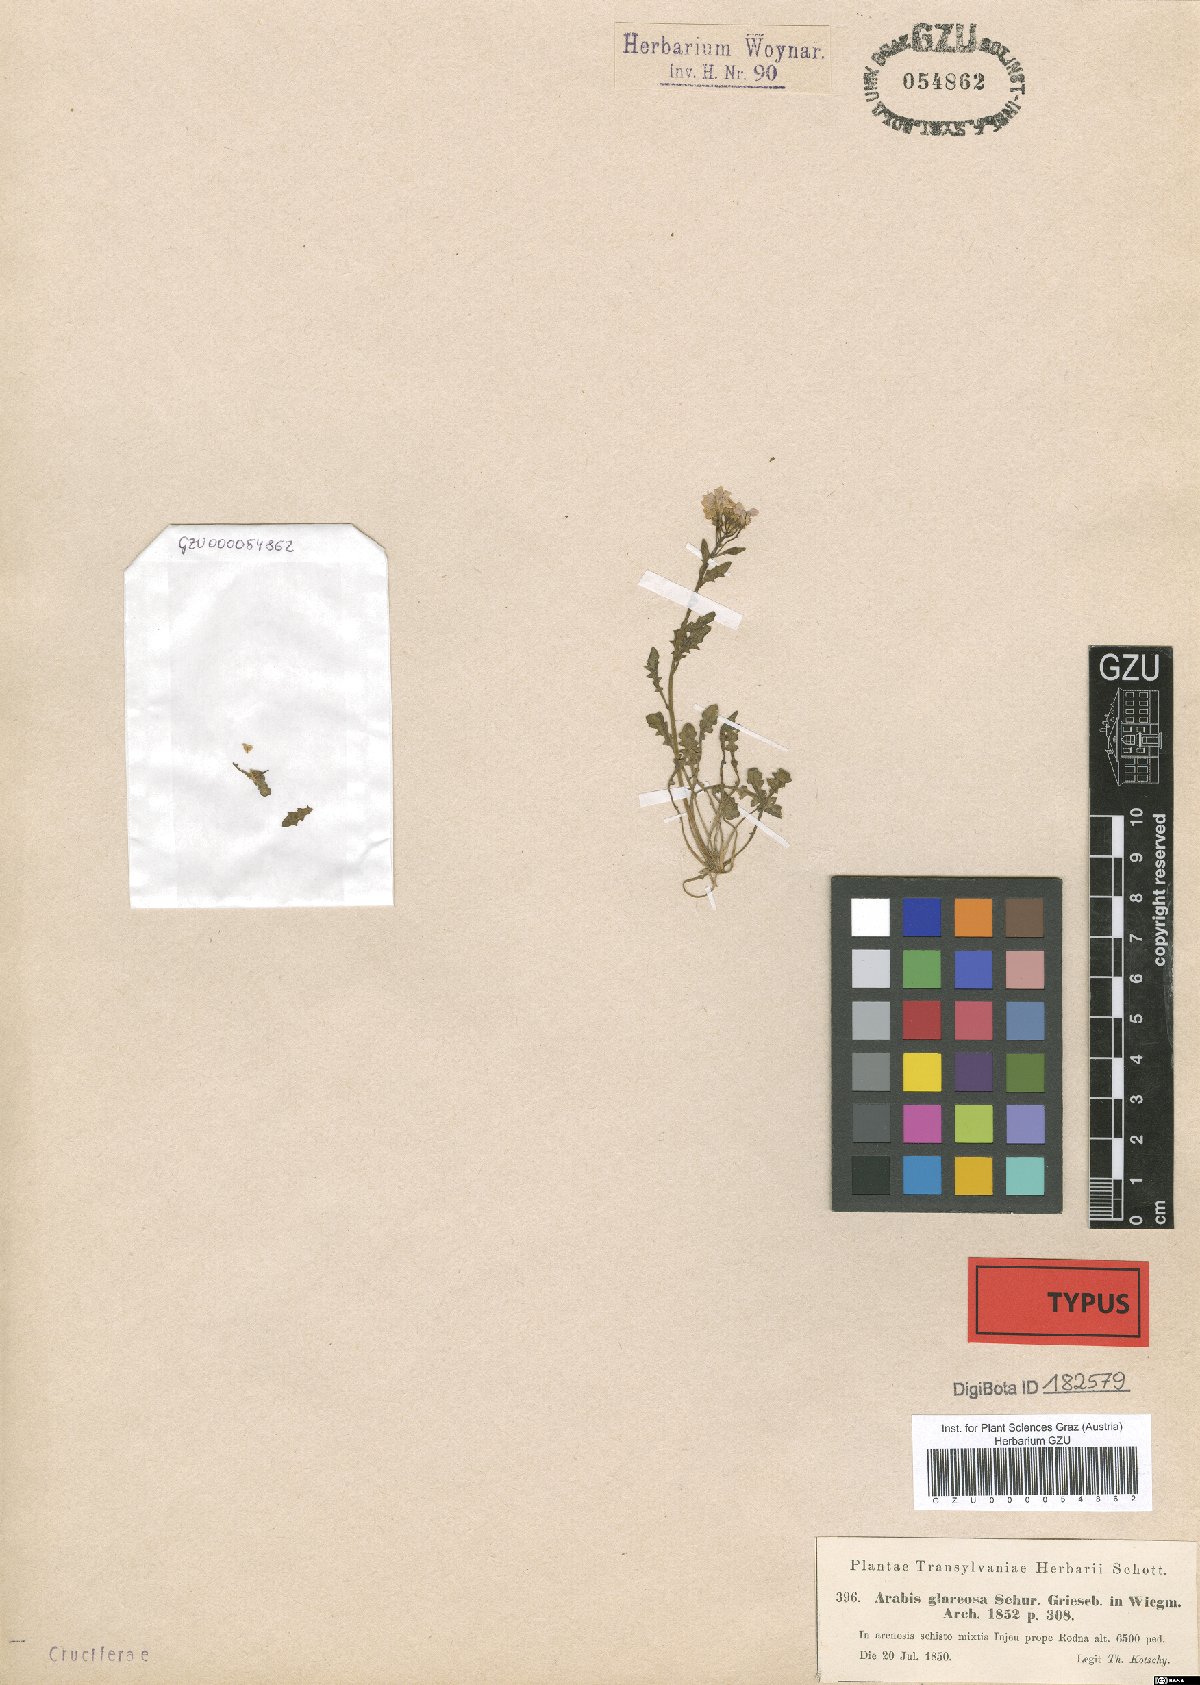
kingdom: Plantae
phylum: Tracheophyta
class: Magnoliopsida
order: Brassicales
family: Brassicaceae
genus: Arabidopsis
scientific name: Arabidopsis neglecta
